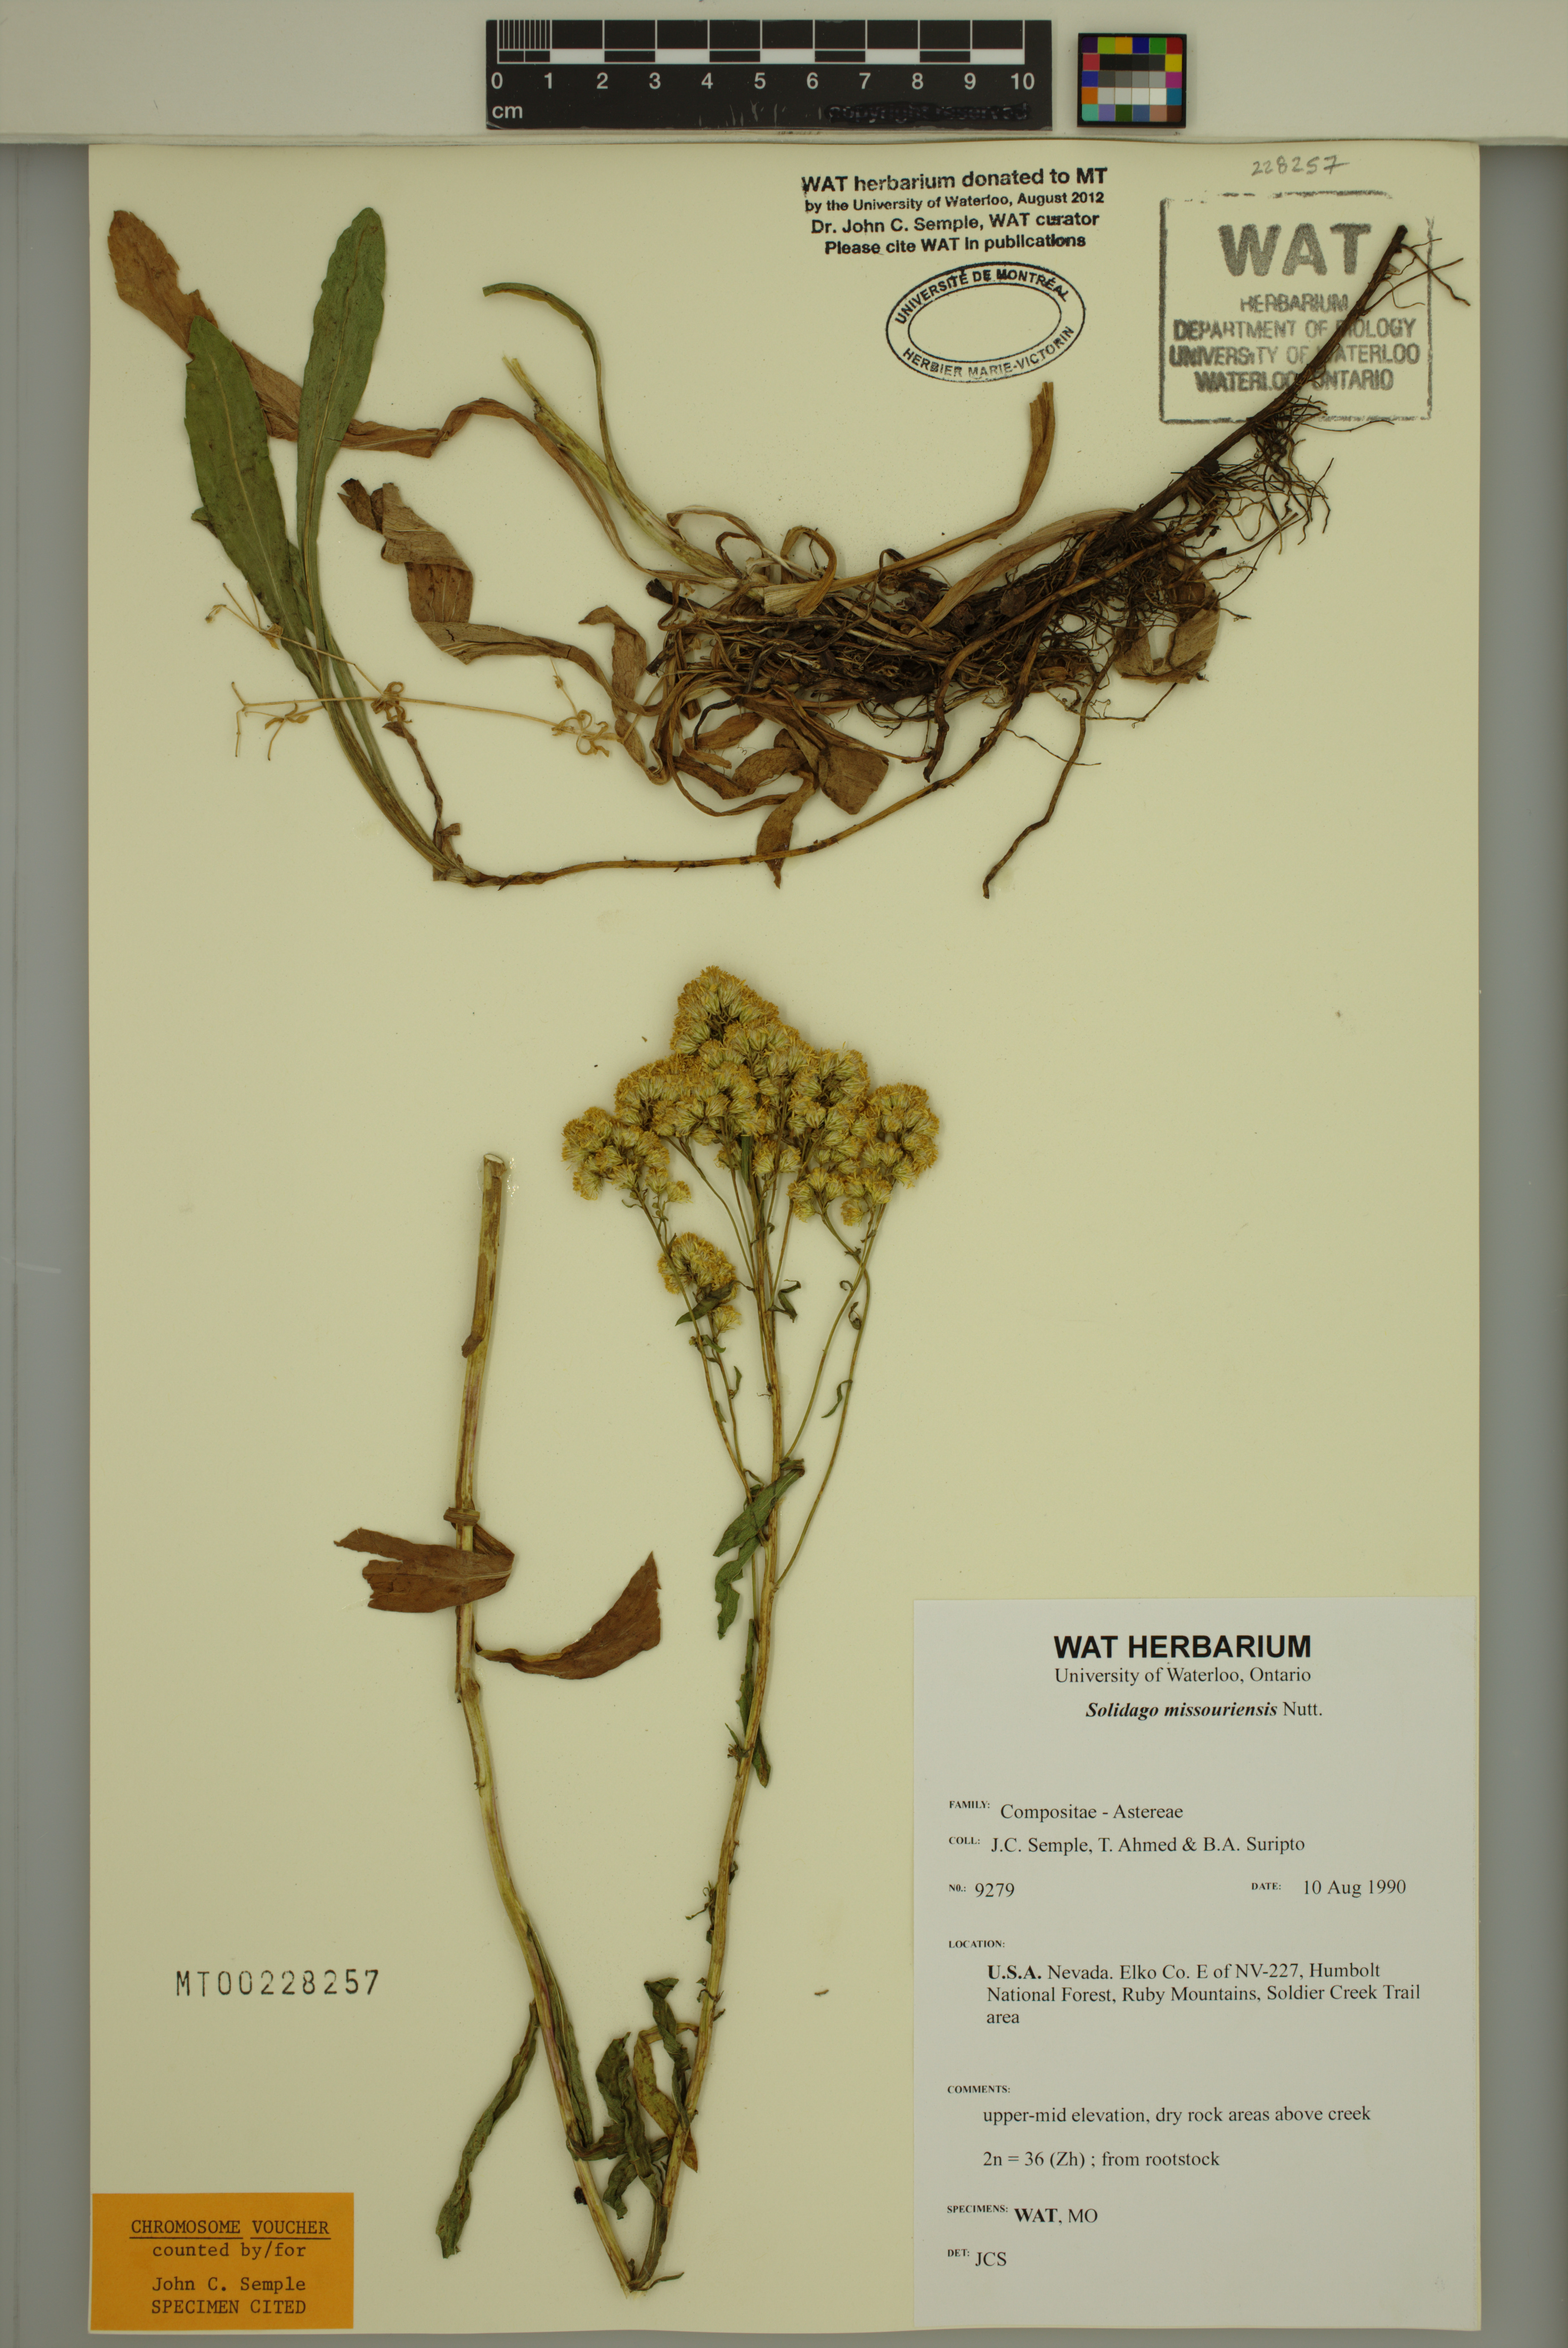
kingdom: Plantae
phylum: Tracheophyta
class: Magnoliopsida
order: Asterales
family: Asteraceae
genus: Solidago
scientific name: Solidago missouriensis
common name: Prairie goldenrod
